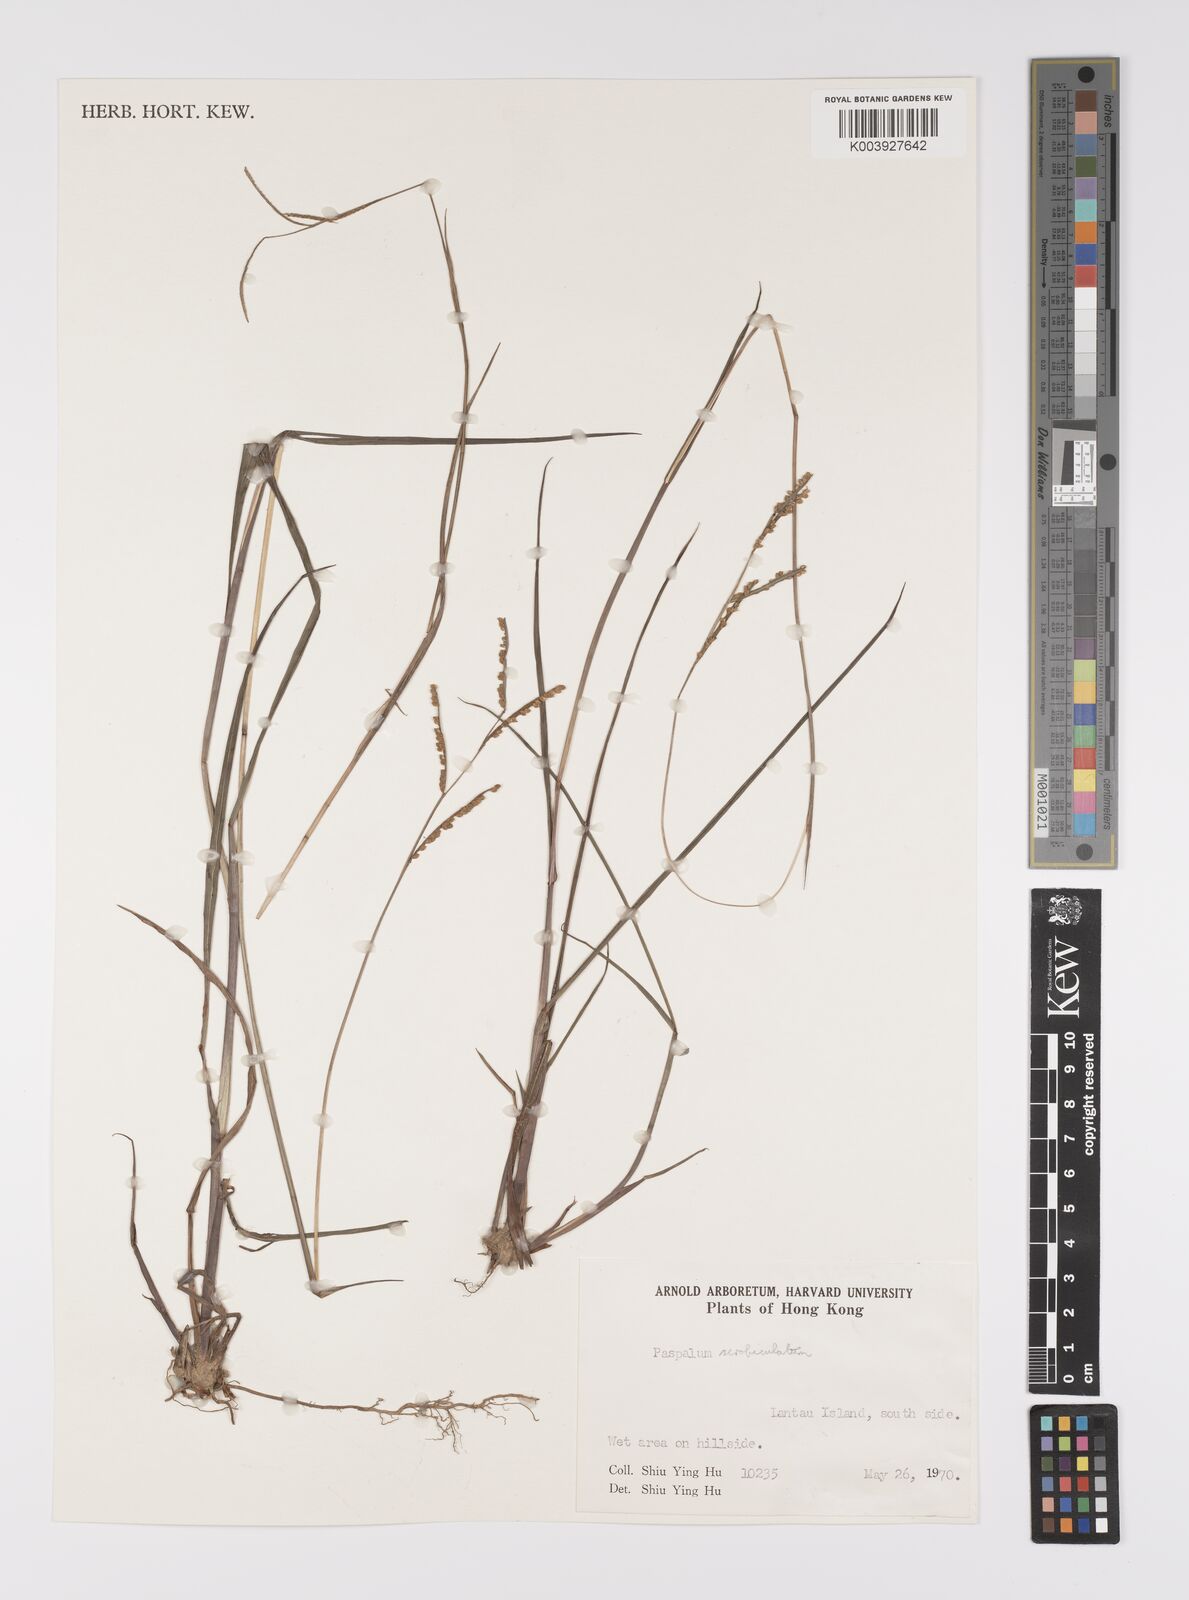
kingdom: Plantae
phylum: Tracheophyta
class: Liliopsida
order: Poales
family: Poaceae
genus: Paspalum
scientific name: Paspalum orbiculare
